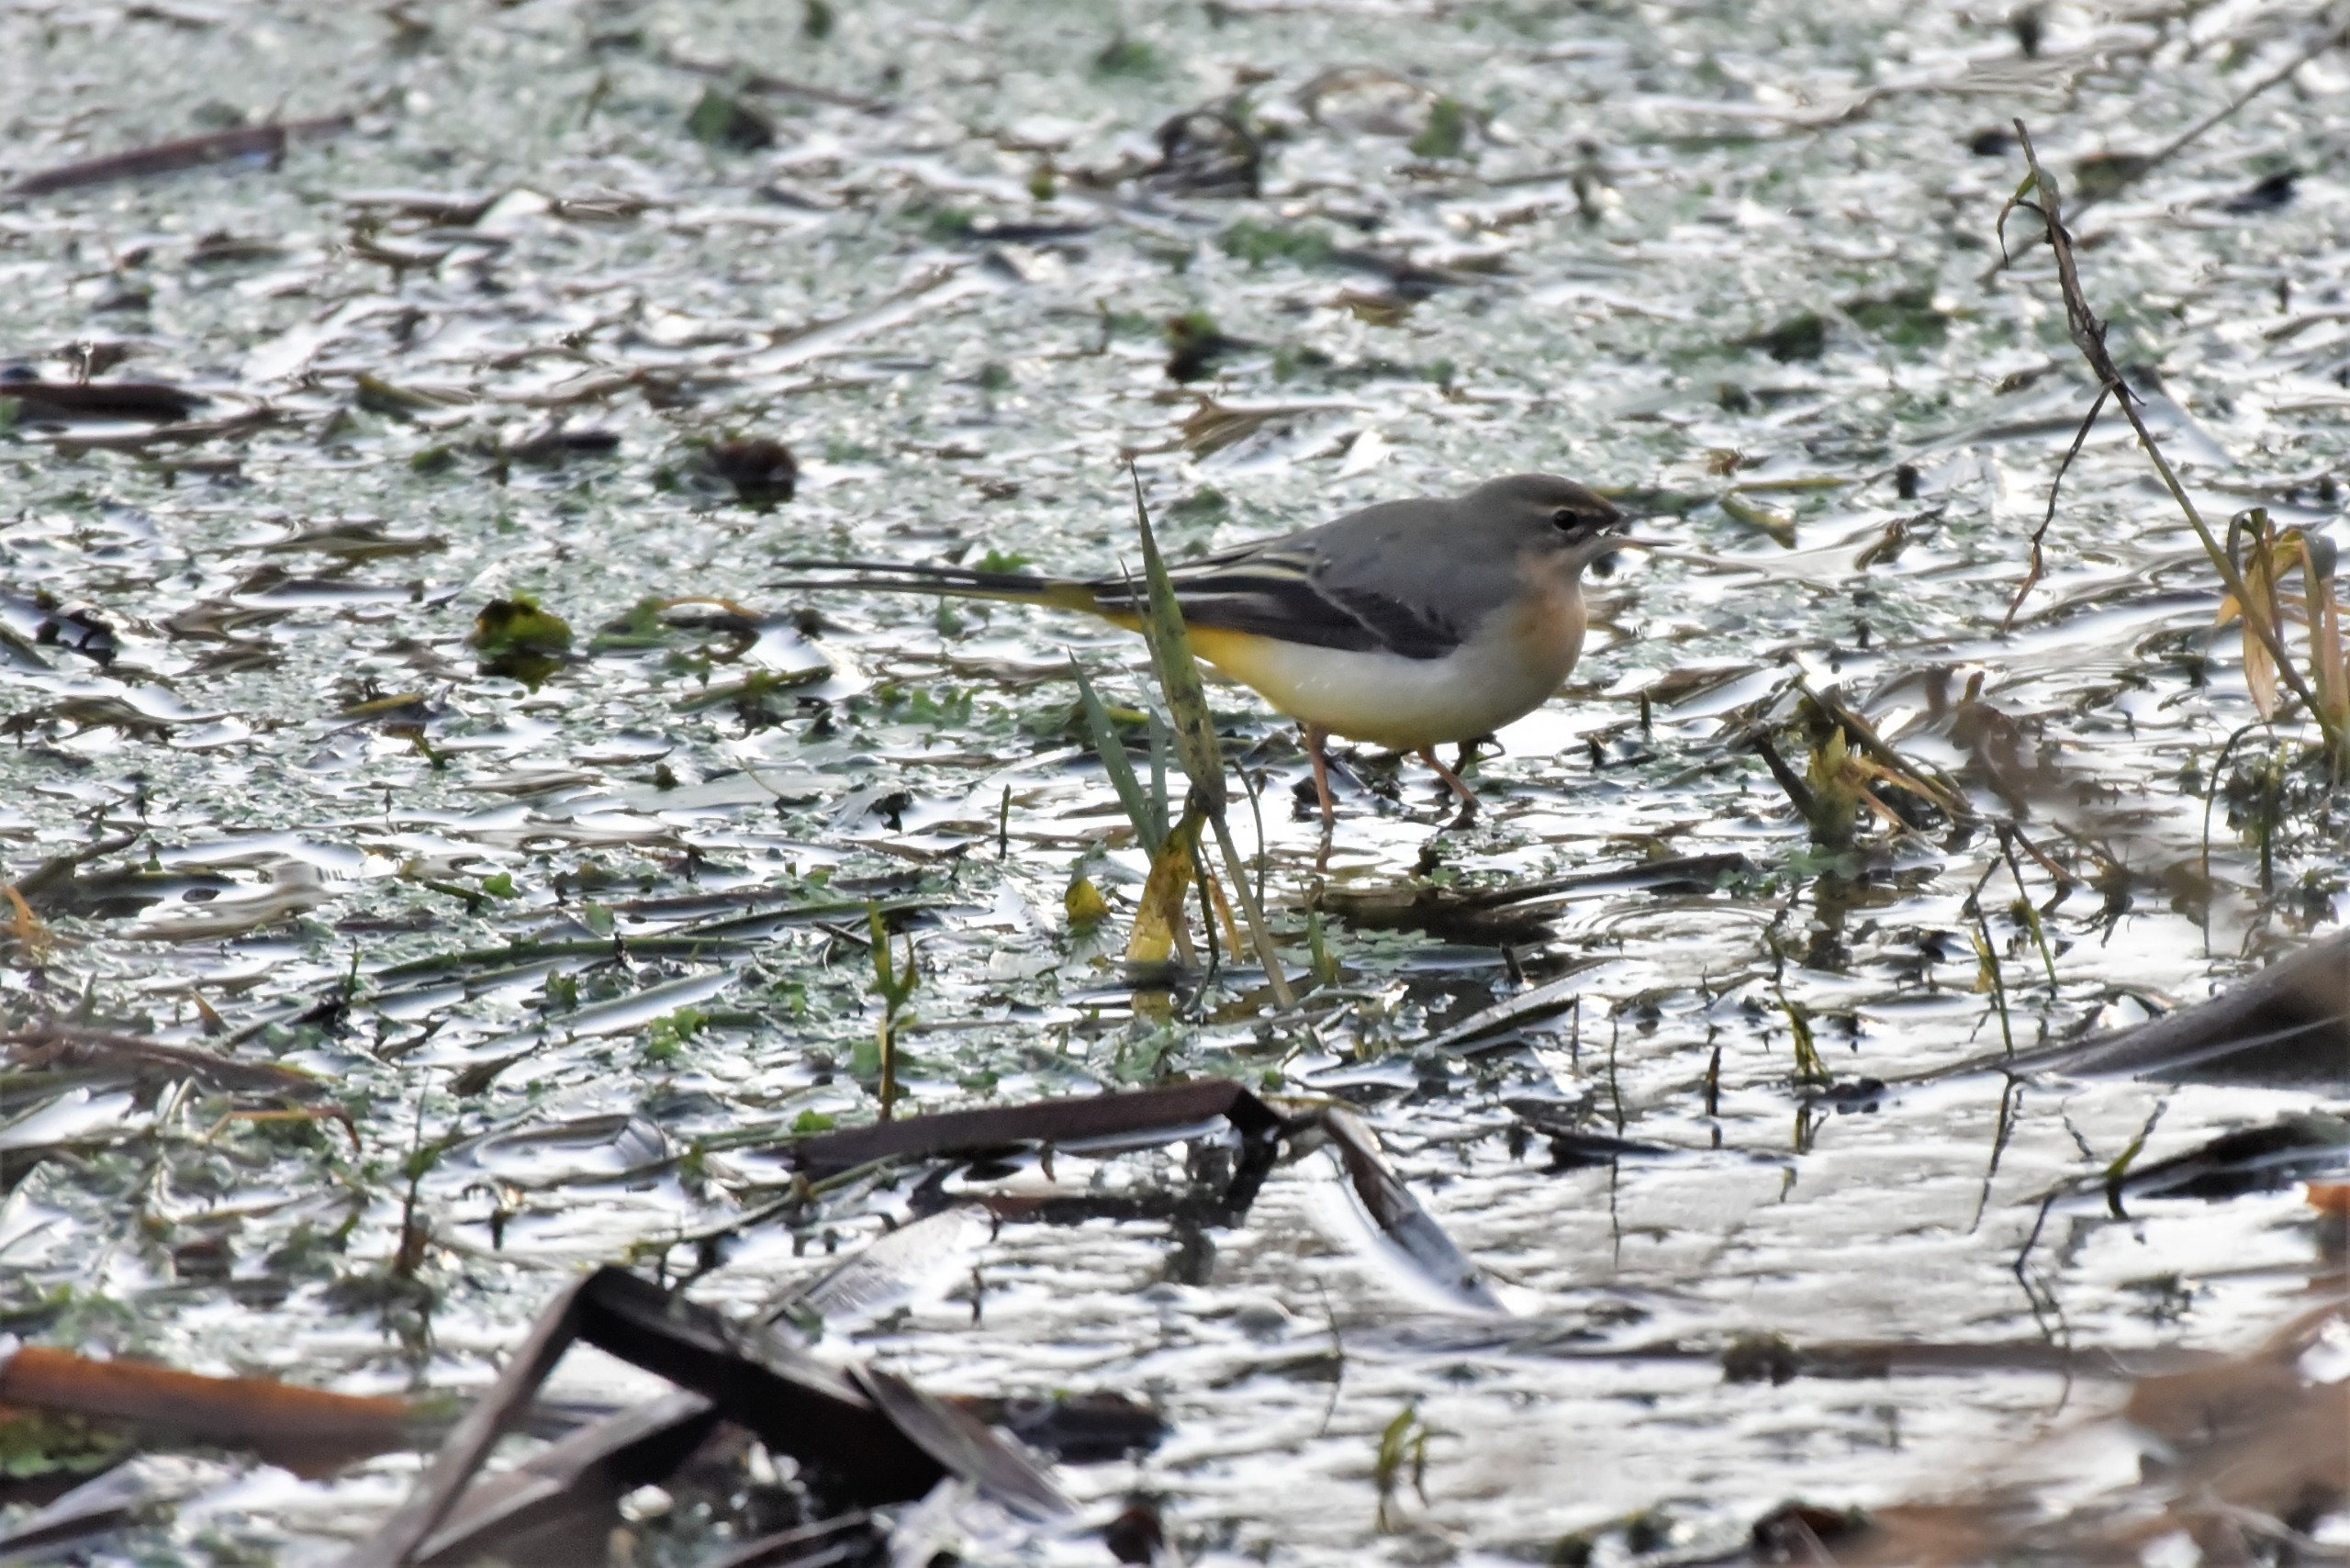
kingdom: Animalia
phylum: Chordata
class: Aves
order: Passeriformes
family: Motacillidae
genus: Motacilla
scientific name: Motacilla cinerea
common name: Bjergvipstjert
